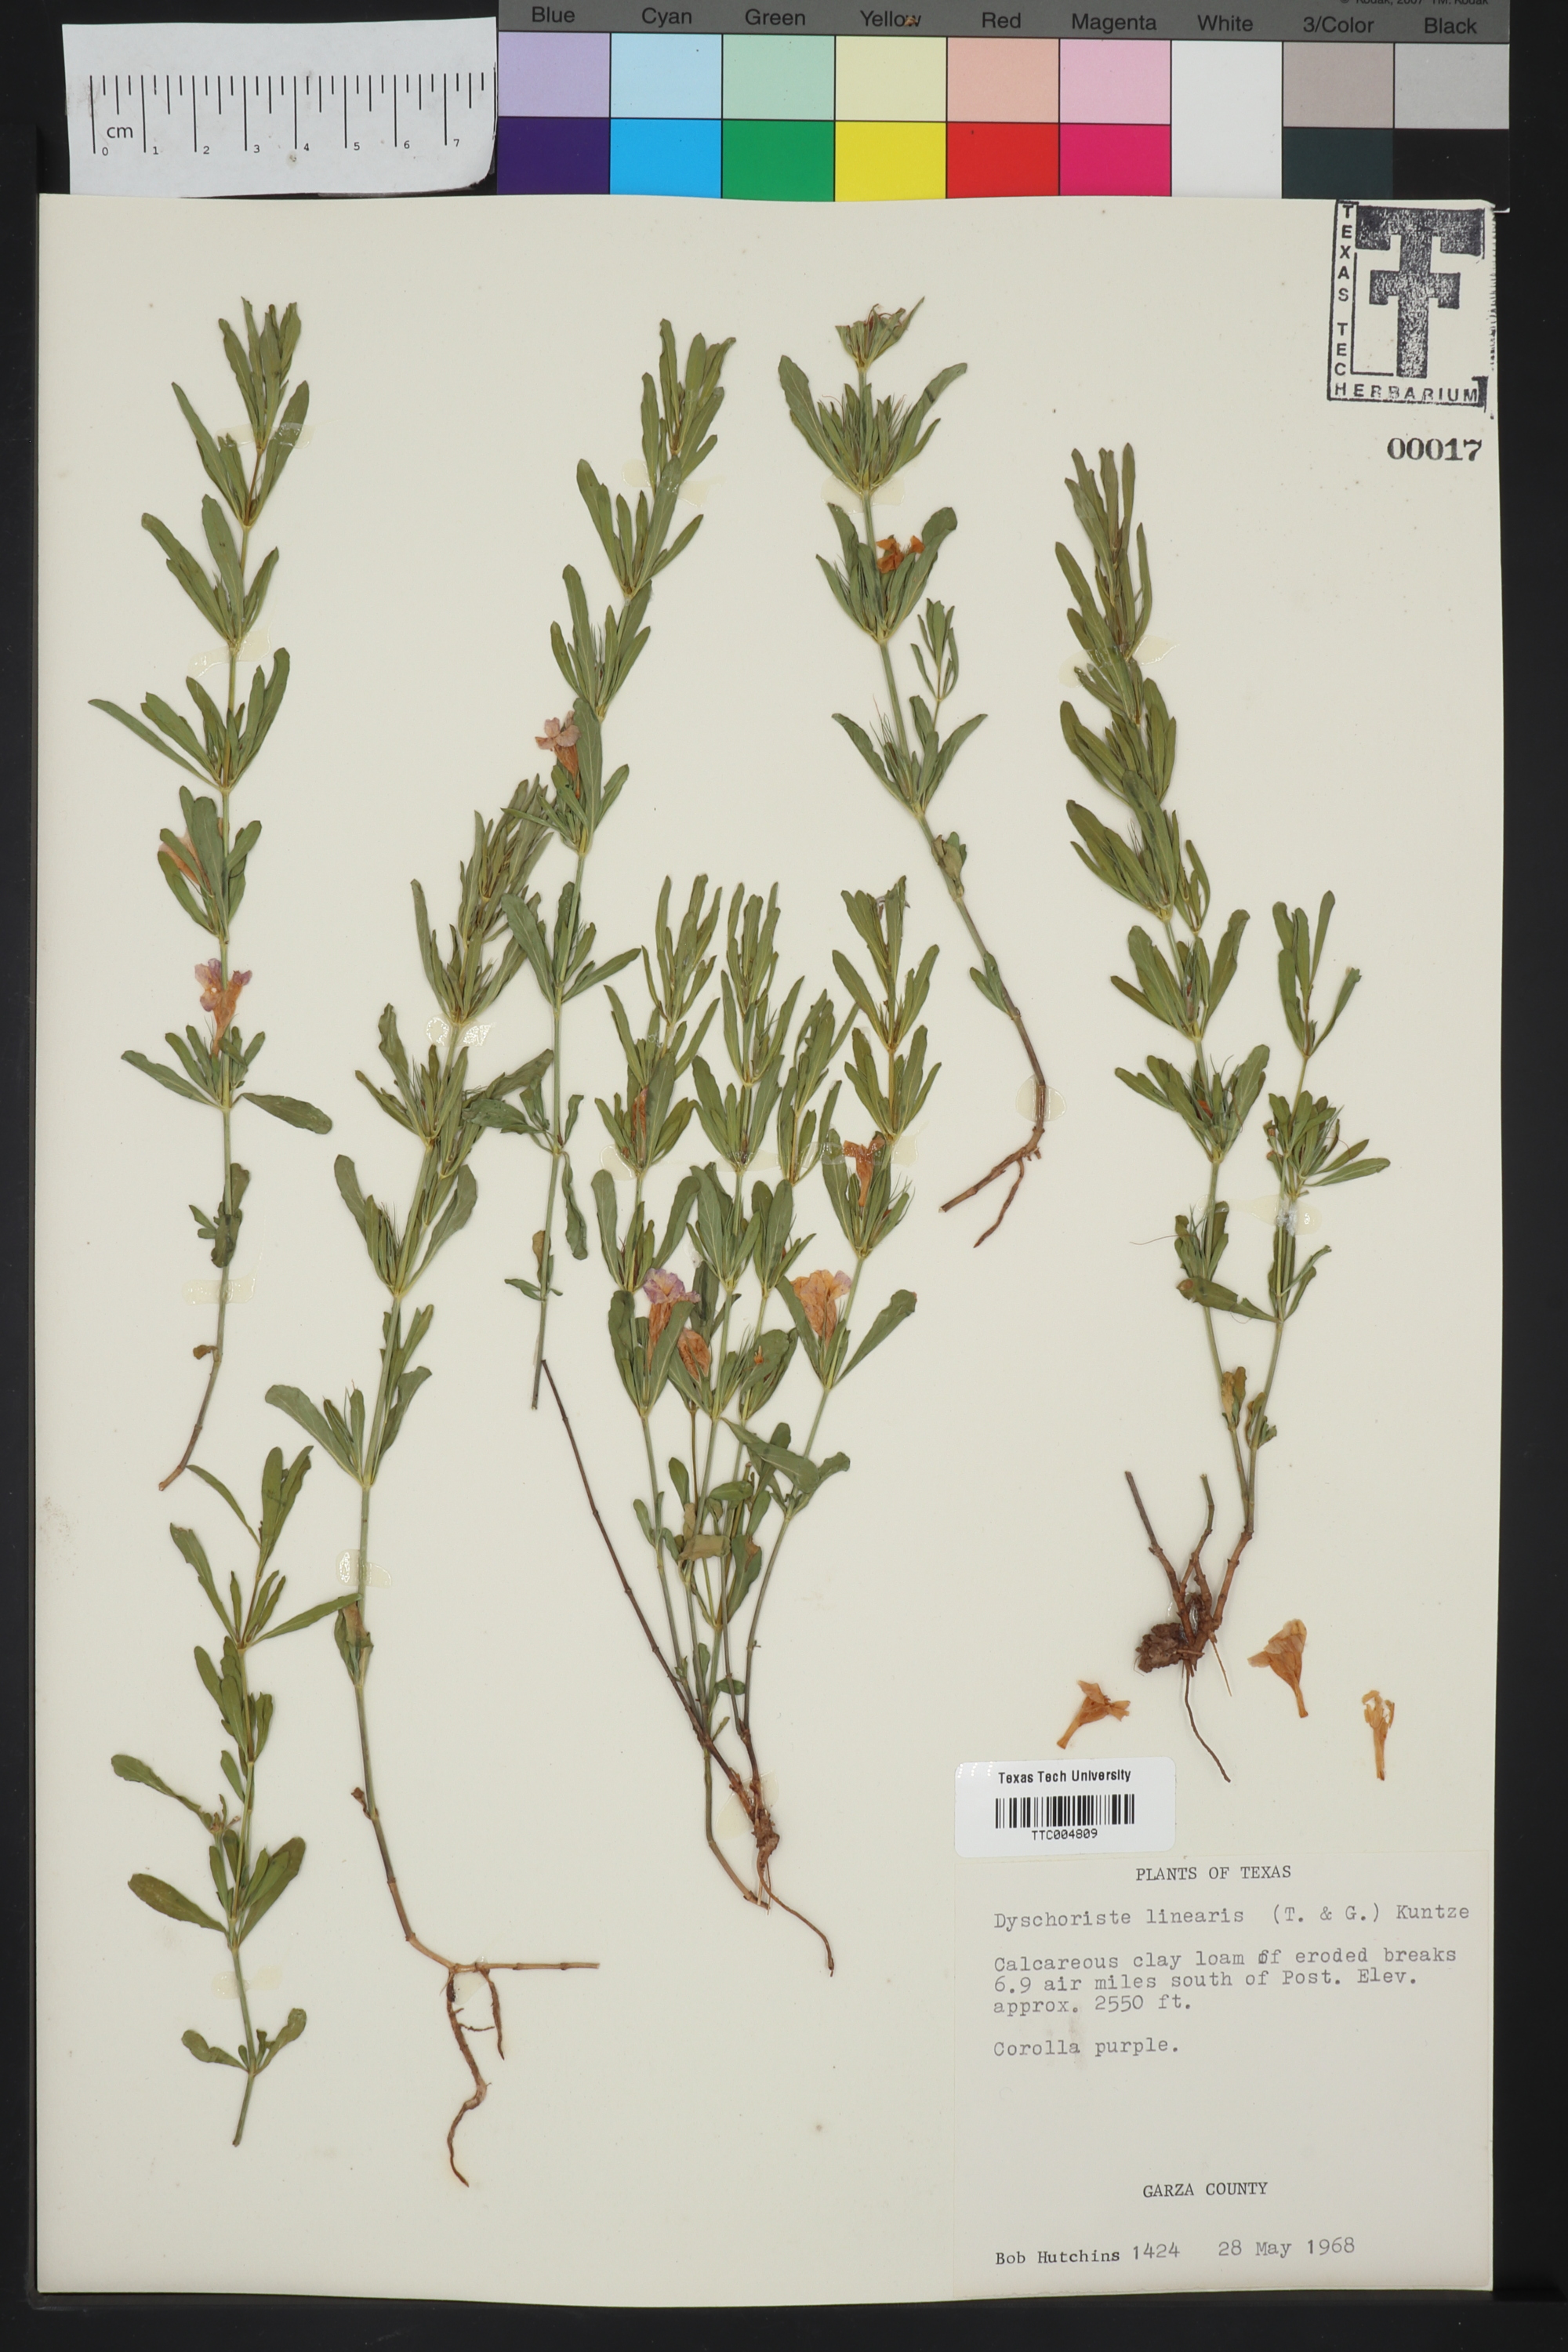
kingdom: Plantae
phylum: Tracheophyta
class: Magnoliopsida
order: Lamiales
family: Acanthaceae
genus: Dyschoriste
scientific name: Dyschoriste linearis
